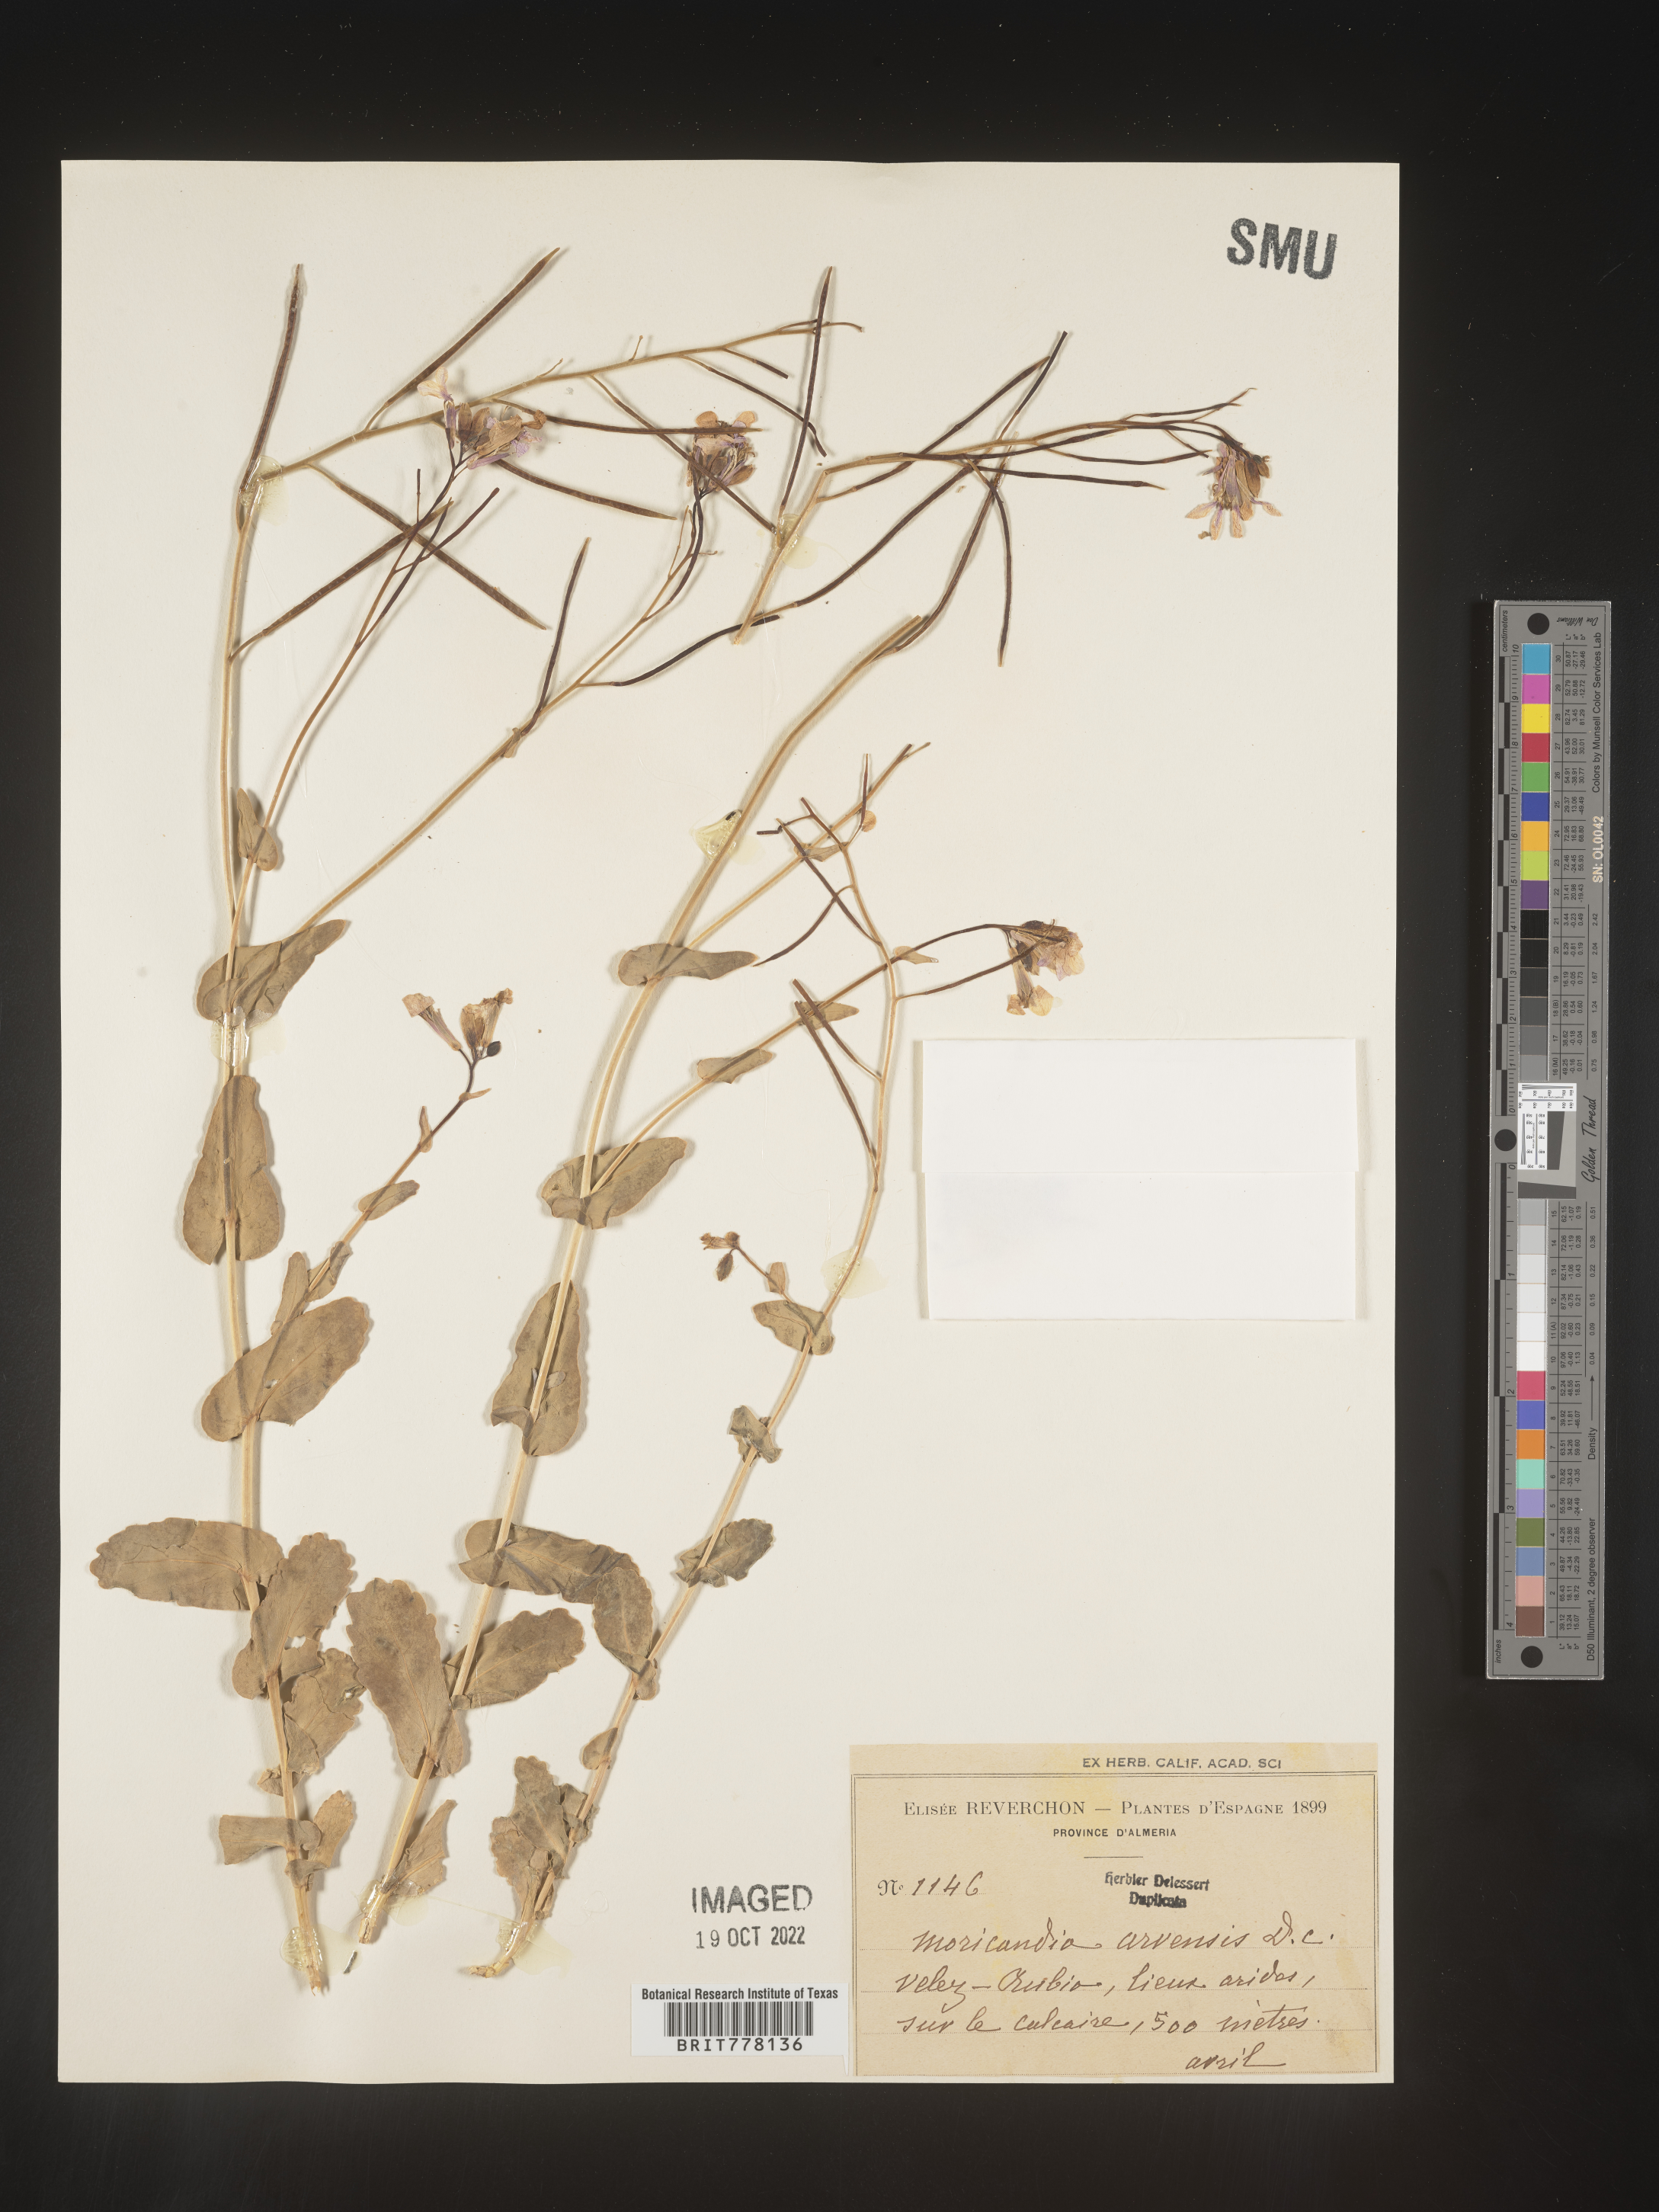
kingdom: Plantae
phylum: Tracheophyta
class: Magnoliopsida
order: Brassicales
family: Brassicaceae
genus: Moricandia
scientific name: Moricandia
